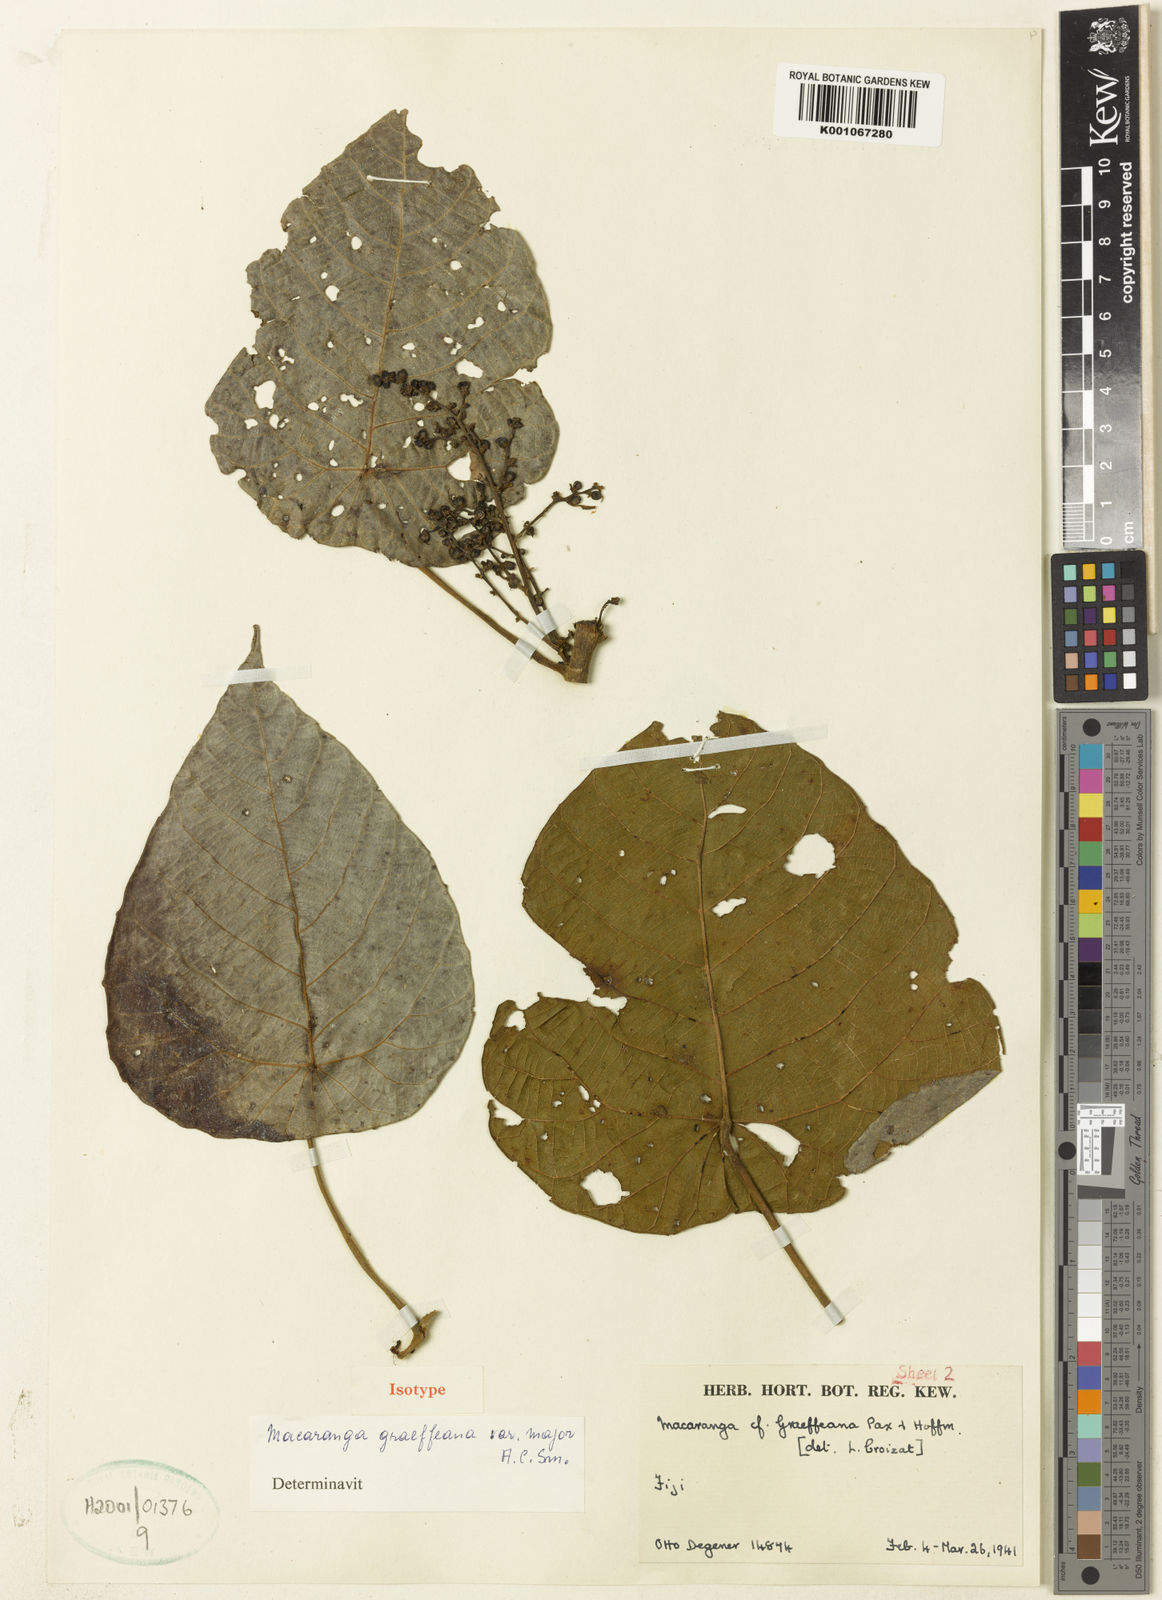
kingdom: Plantae
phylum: Tracheophyta
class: Magnoliopsida
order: Malpighiales
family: Euphorbiaceae
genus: Macaranga
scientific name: Macaranga graeffeana
